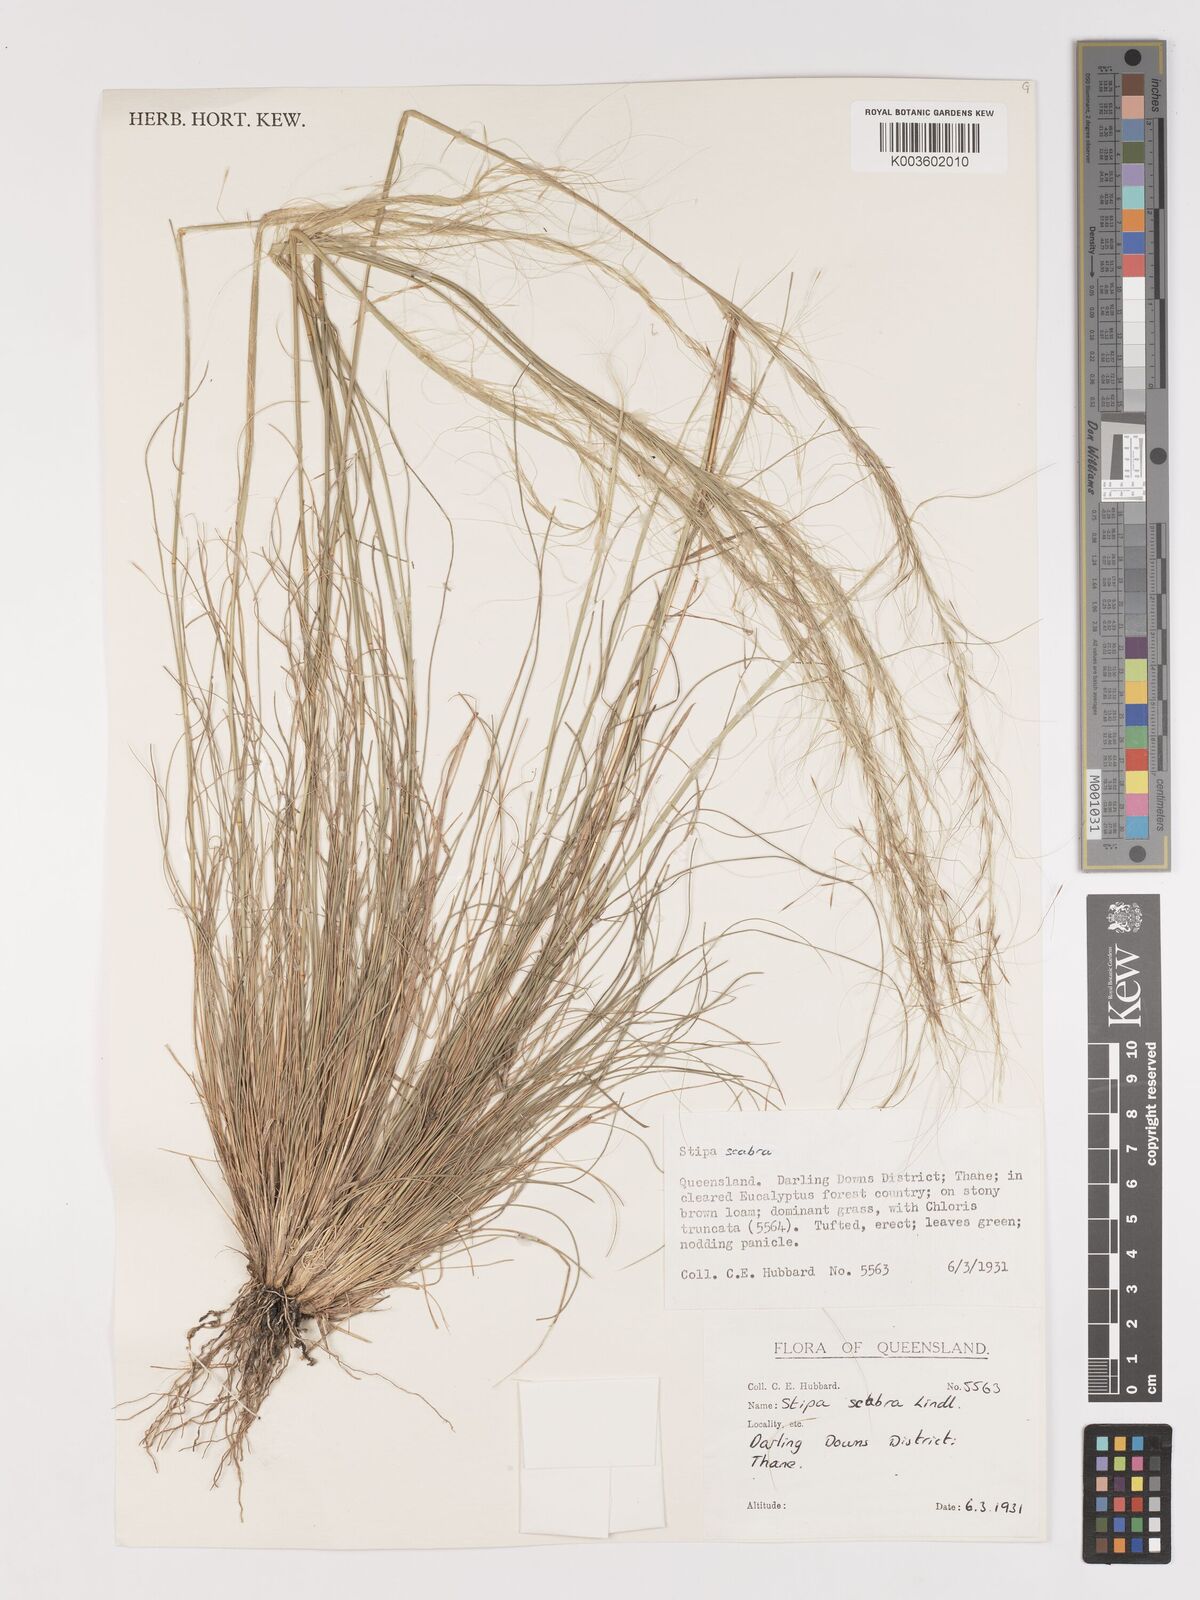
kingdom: Plantae
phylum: Tracheophyta
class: Liliopsida
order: Poales
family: Poaceae
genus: Austrostipa
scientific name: Austrostipa scabra
